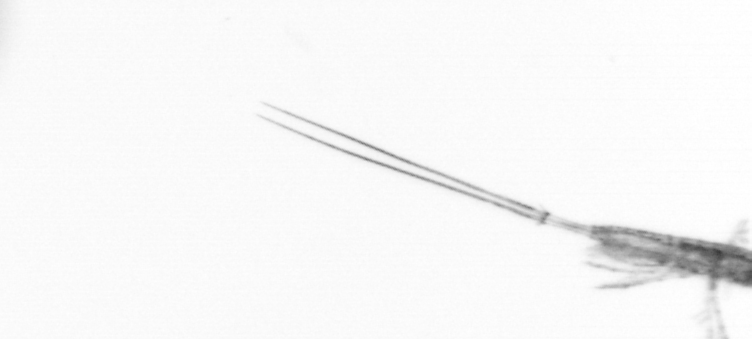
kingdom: Animalia
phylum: Arthropoda
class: Copepoda
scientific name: Copepoda
